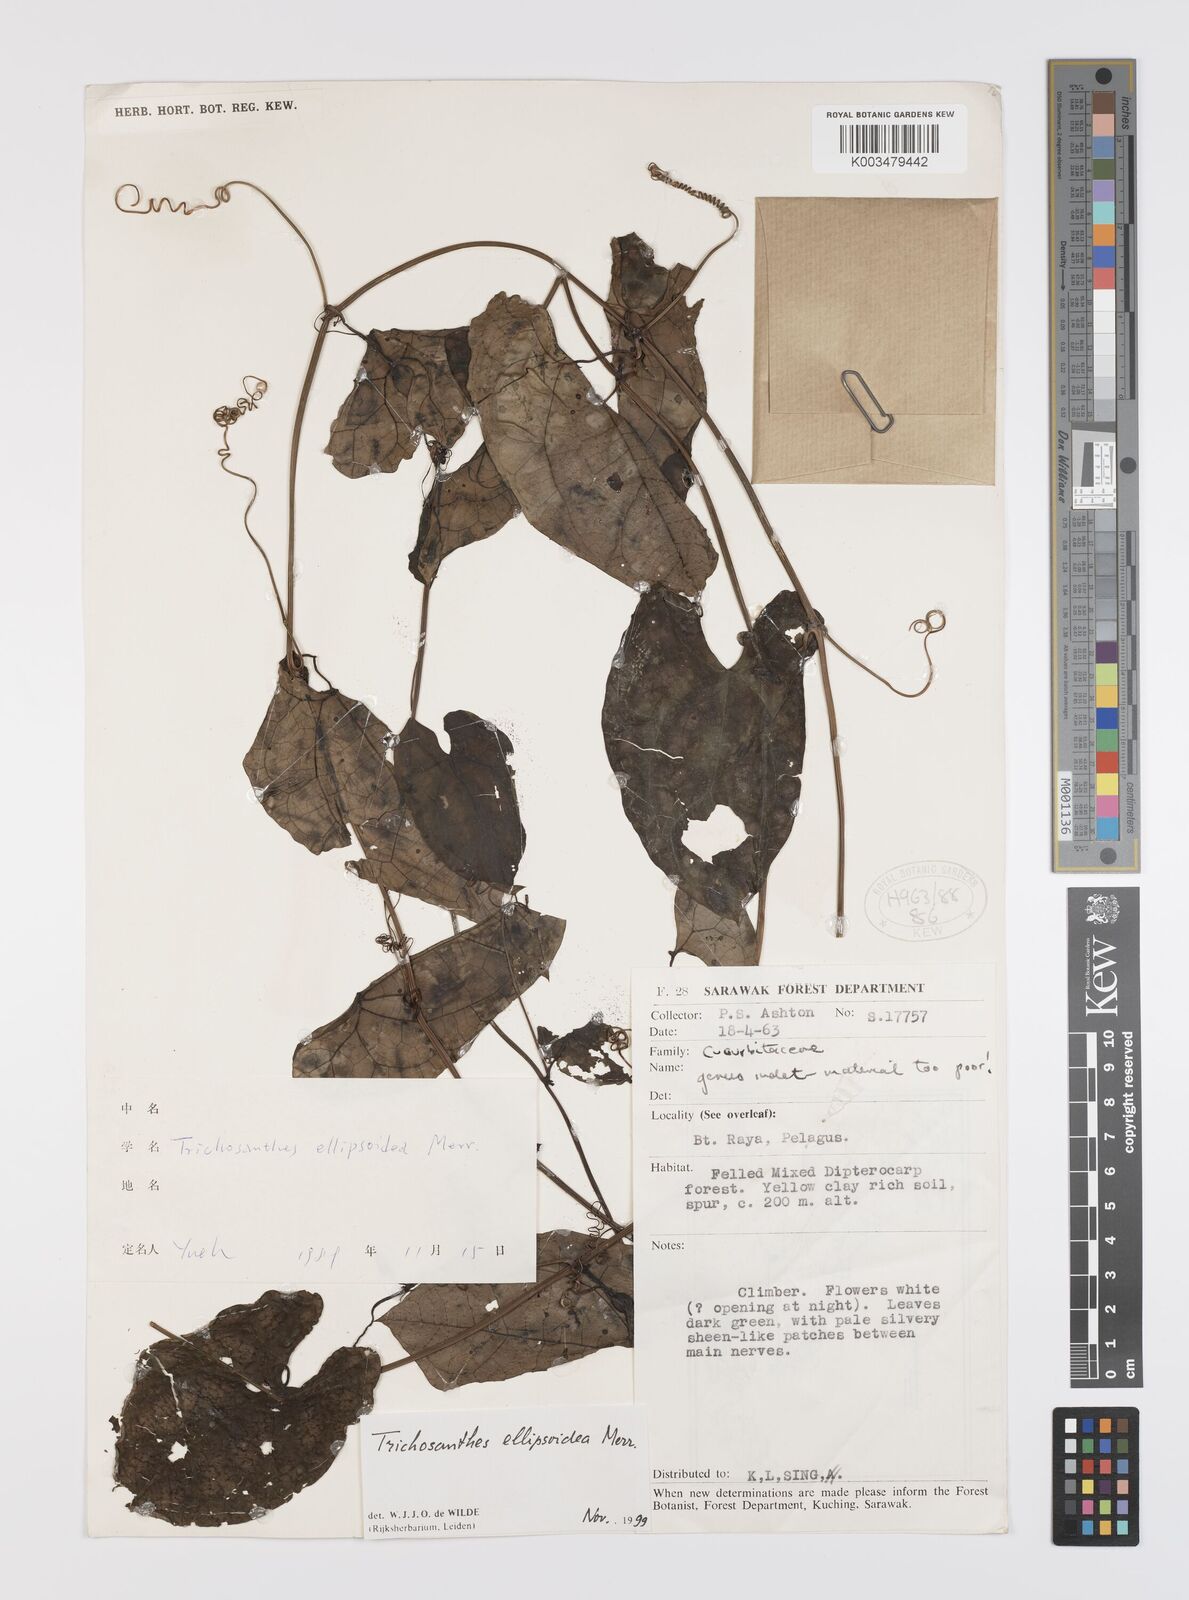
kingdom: Plantae
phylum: Tracheophyta
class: Magnoliopsida
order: Cucurbitales
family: Cucurbitaceae
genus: Trichosanthes
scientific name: Trichosanthes ellipsoidea
